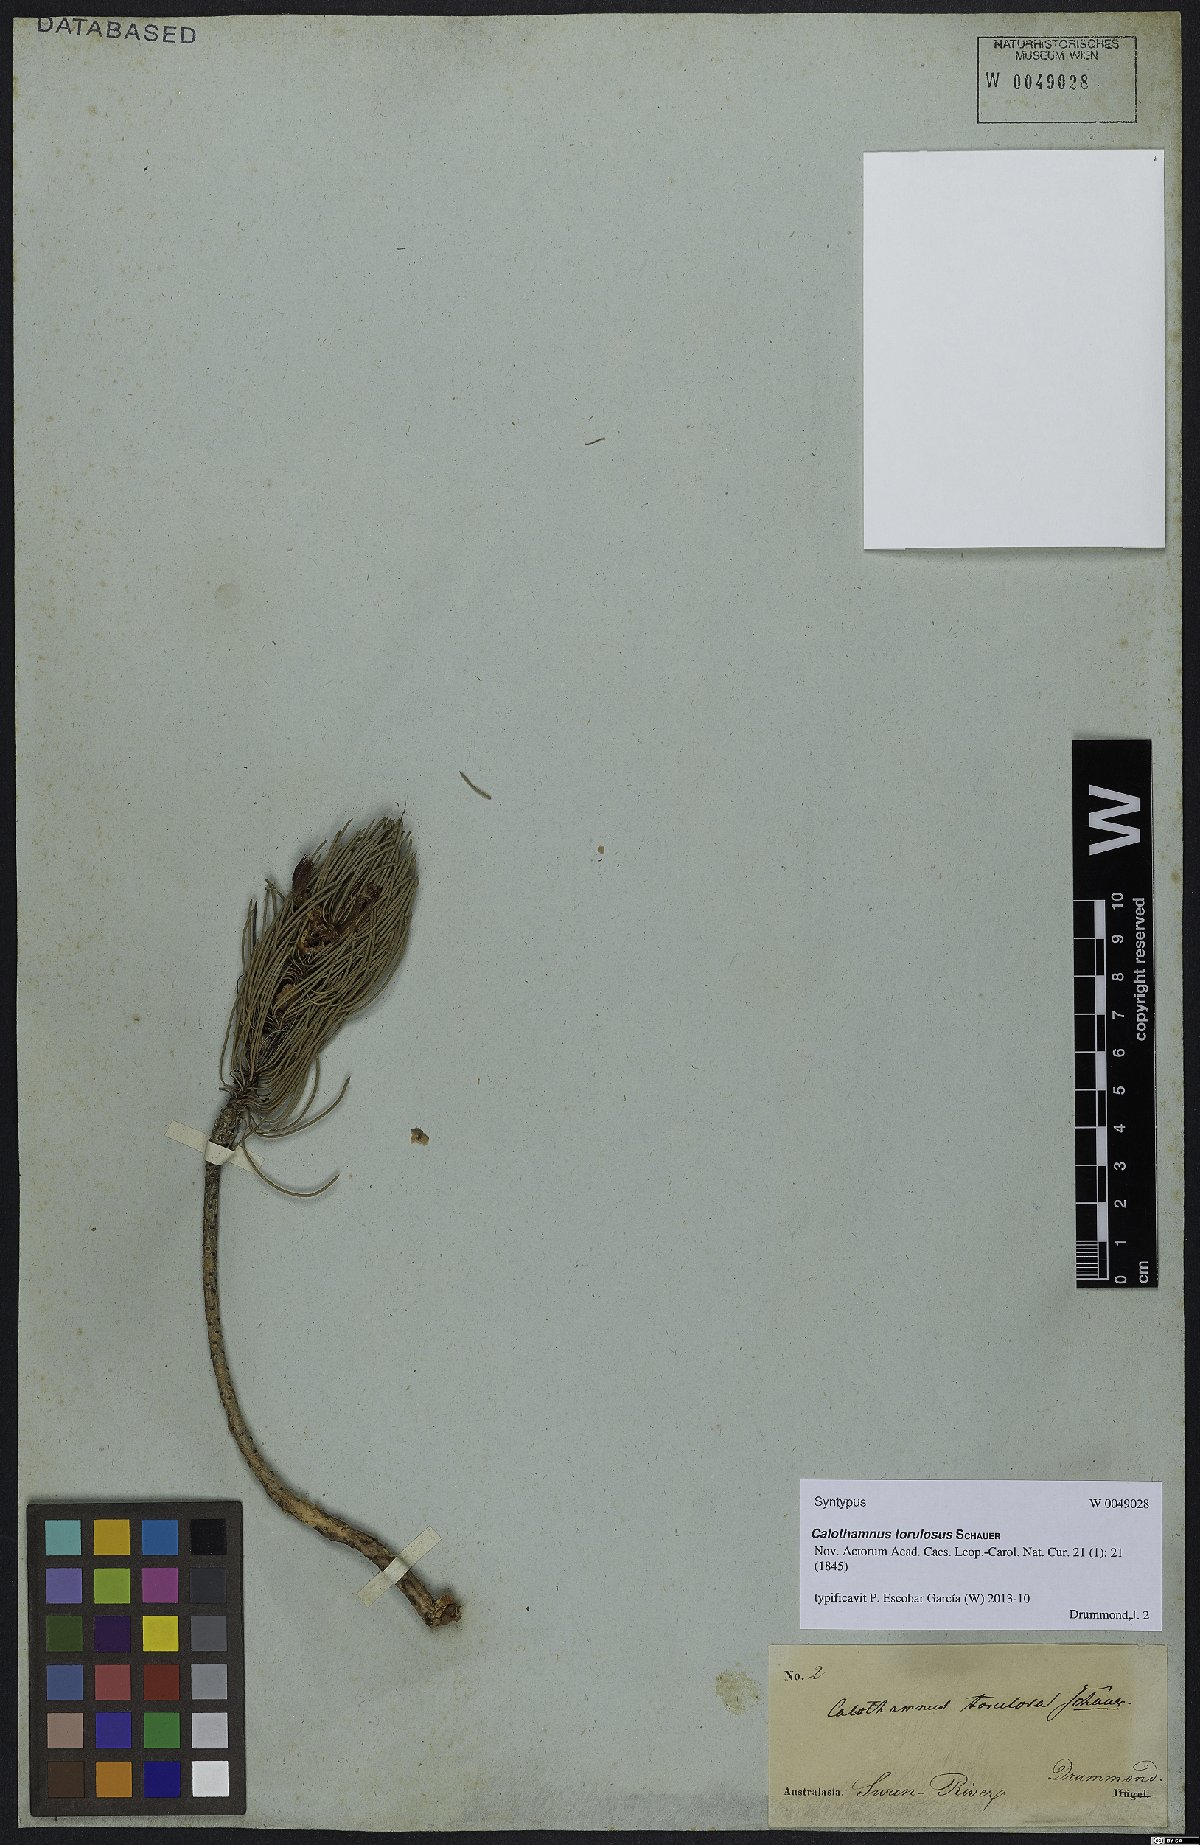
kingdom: Plantae
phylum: Tracheophyta
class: Magnoliopsida
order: Myrtales
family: Myrtaceae
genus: Melaleuca
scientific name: Melaleuca torulosa
